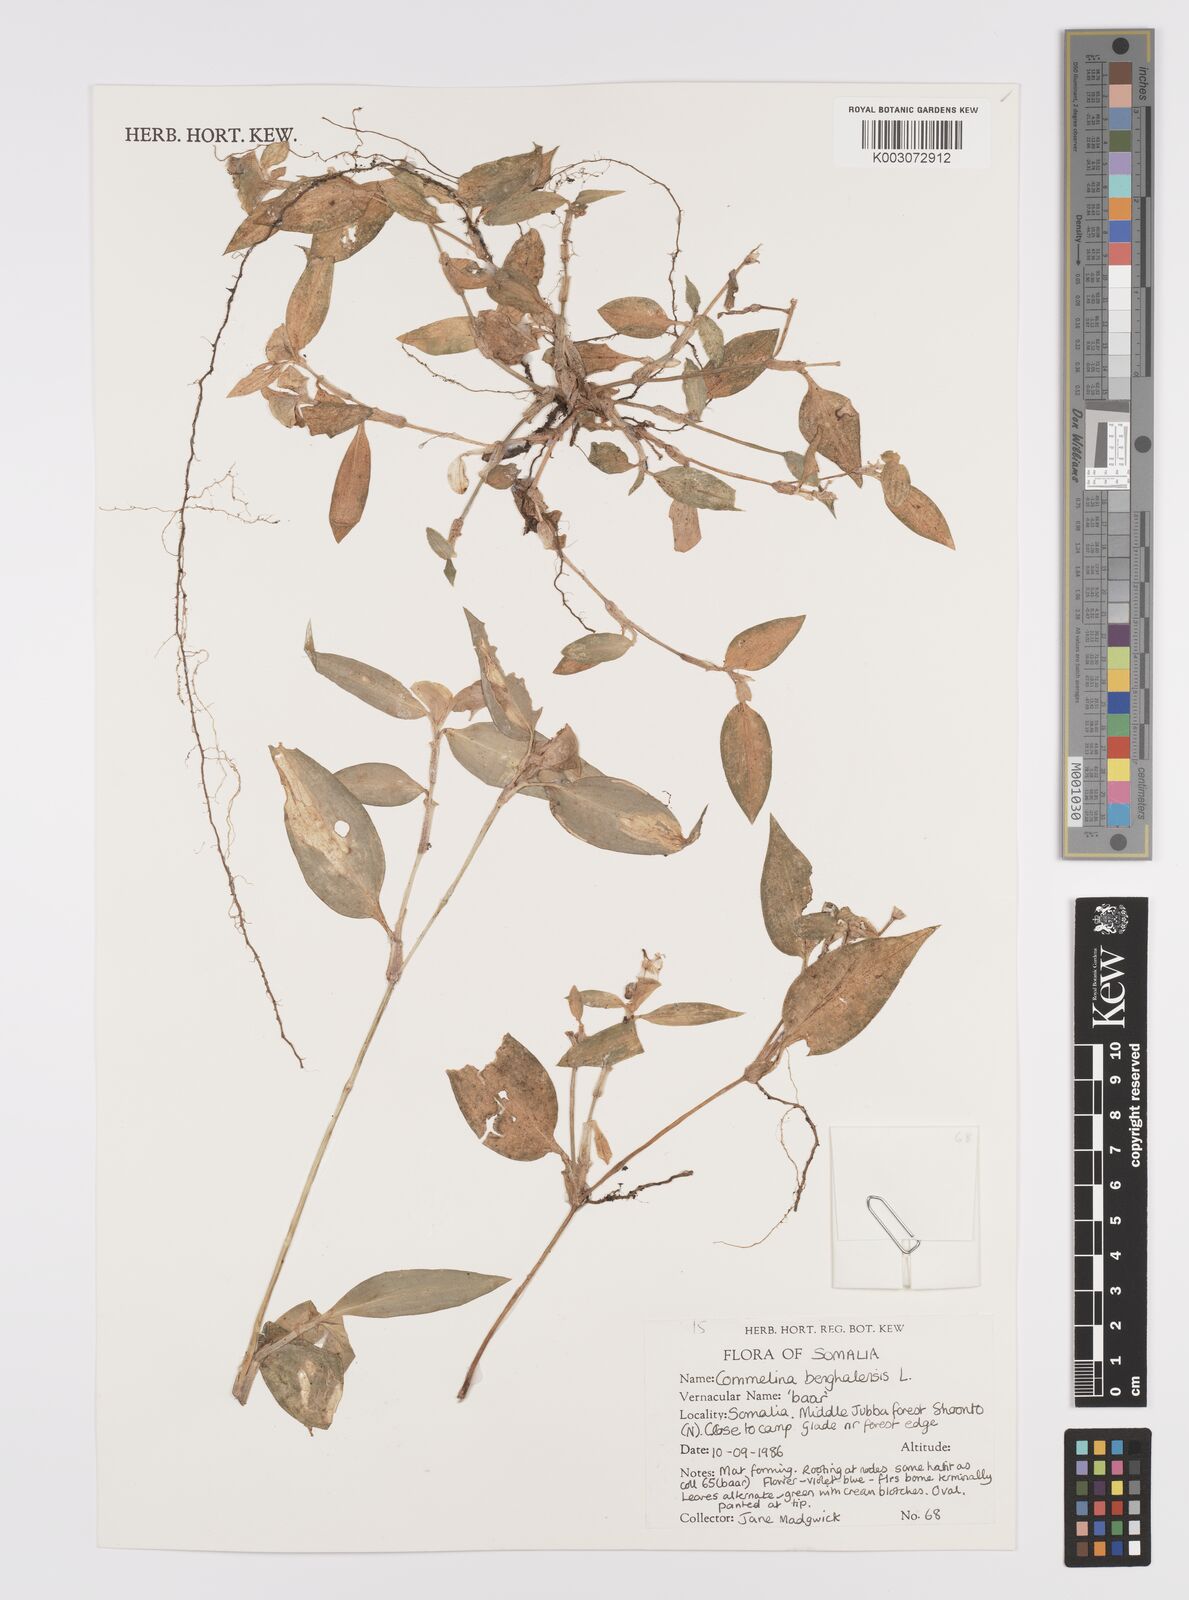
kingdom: Plantae
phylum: Tracheophyta
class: Liliopsida
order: Commelinales
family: Commelinaceae
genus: Commelina
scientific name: Commelina benghalensis
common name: Jio
